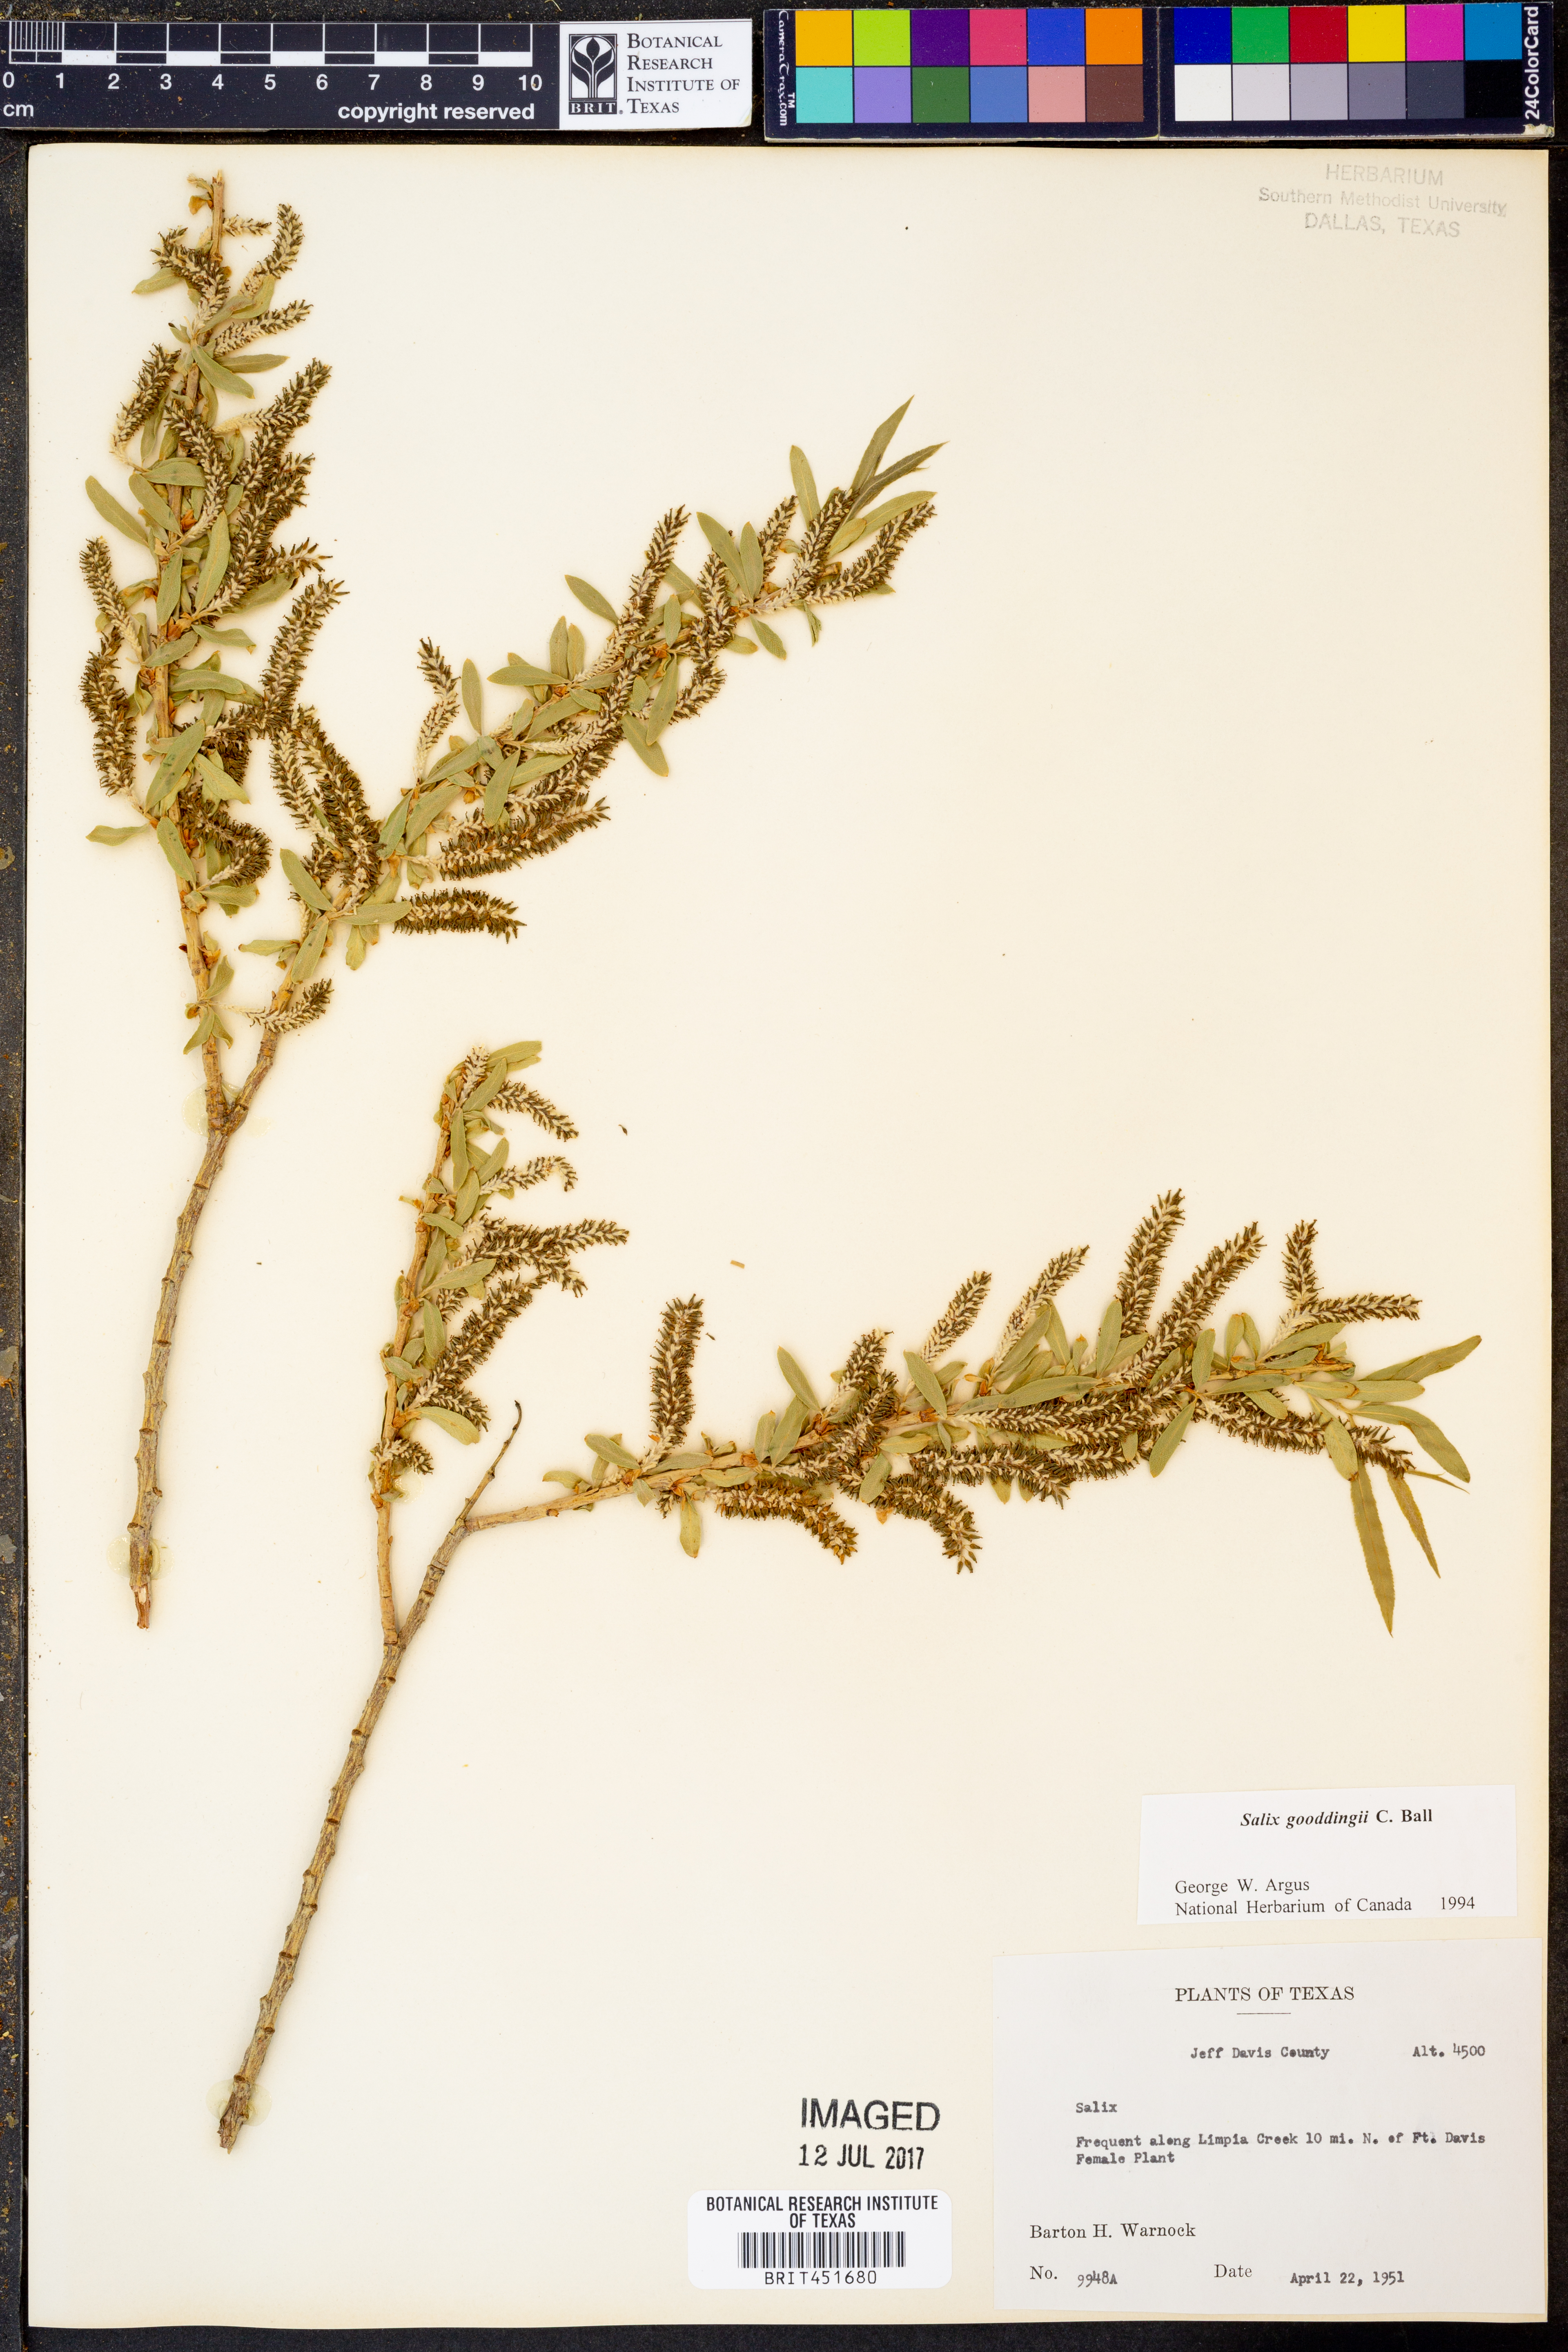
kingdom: Plantae
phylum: Tracheophyta
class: Magnoliopsida
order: Malpighiales
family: Salicaceae
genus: Salix
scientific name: Salix gooddingii
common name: Goodding's willow
